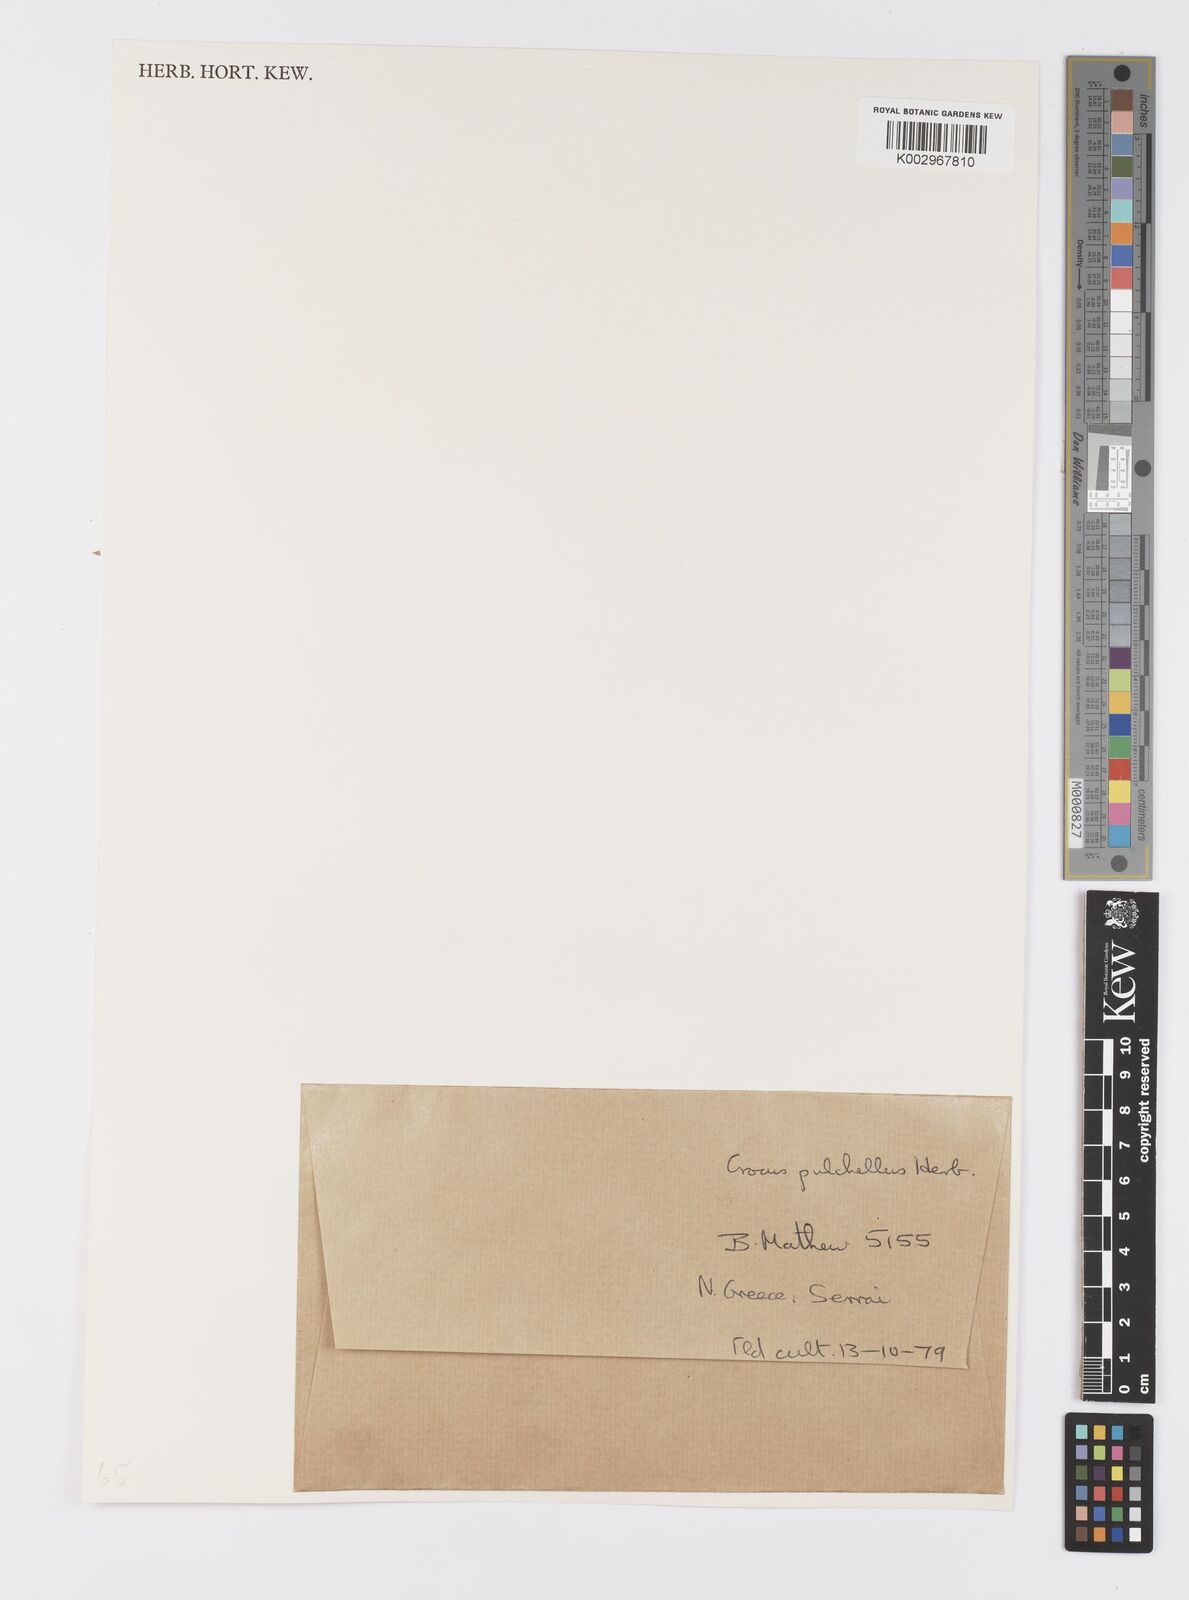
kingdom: Plantae
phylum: Tracheophyta
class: Liliopsida
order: Asparagales
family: Iridaceae
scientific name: Iridaceae
